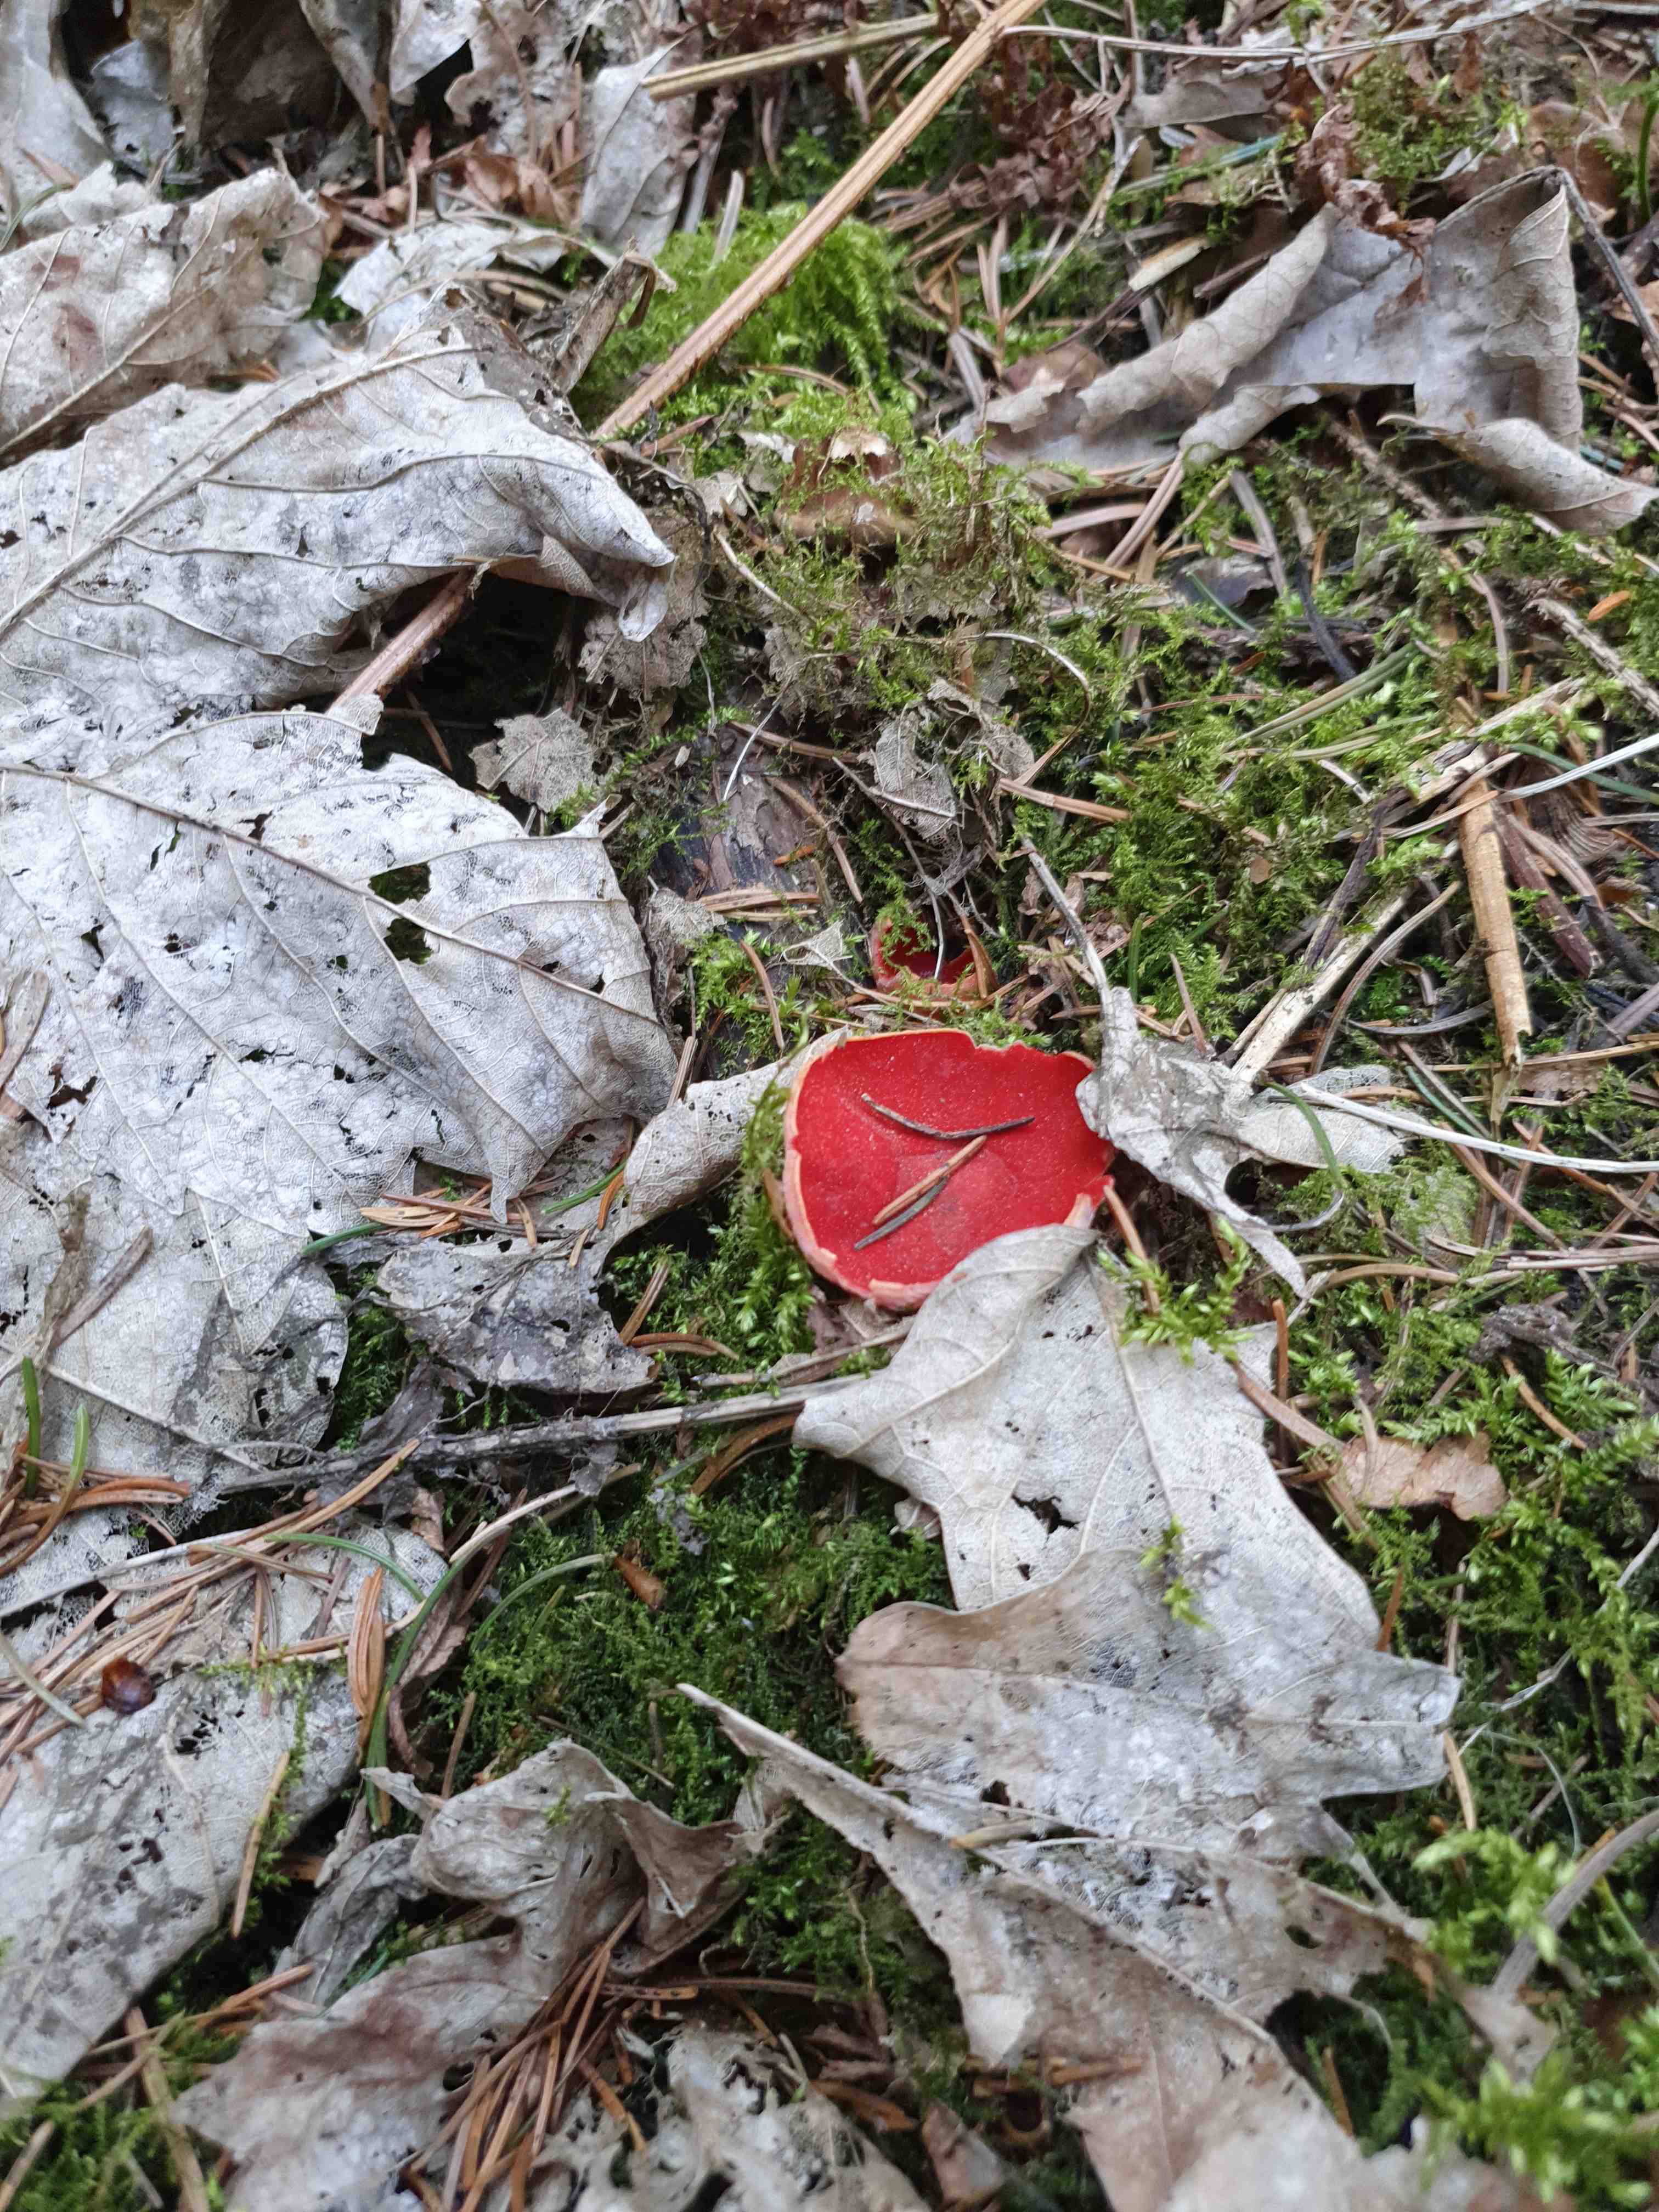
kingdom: Fungi
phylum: Ascomycota
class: Pezizomycetes
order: Pezizales
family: Sarcoscyphaceae
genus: Sarcoscypha
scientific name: Sarcoscypha austriaca
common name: krølhåret pragtbæger
